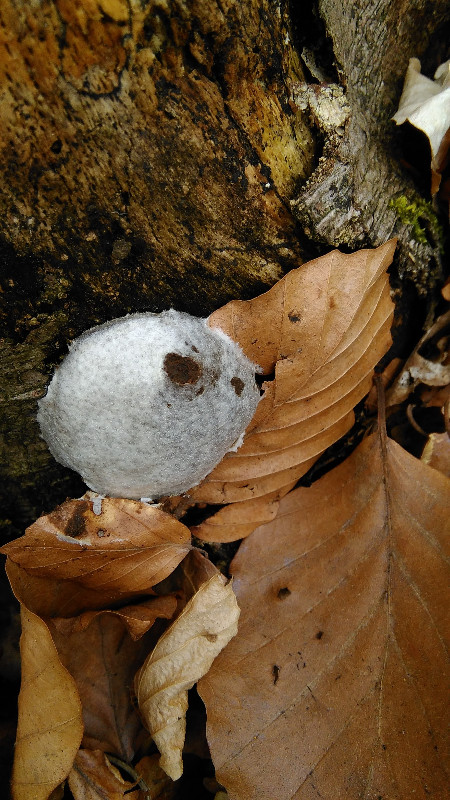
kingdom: Protozoa
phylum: Mycetozoa
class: Myxomycetes
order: Cribrariales
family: Tubiferaceae
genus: Reticularia
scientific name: Reticularia lycoperdon
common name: skinnende støvpude
